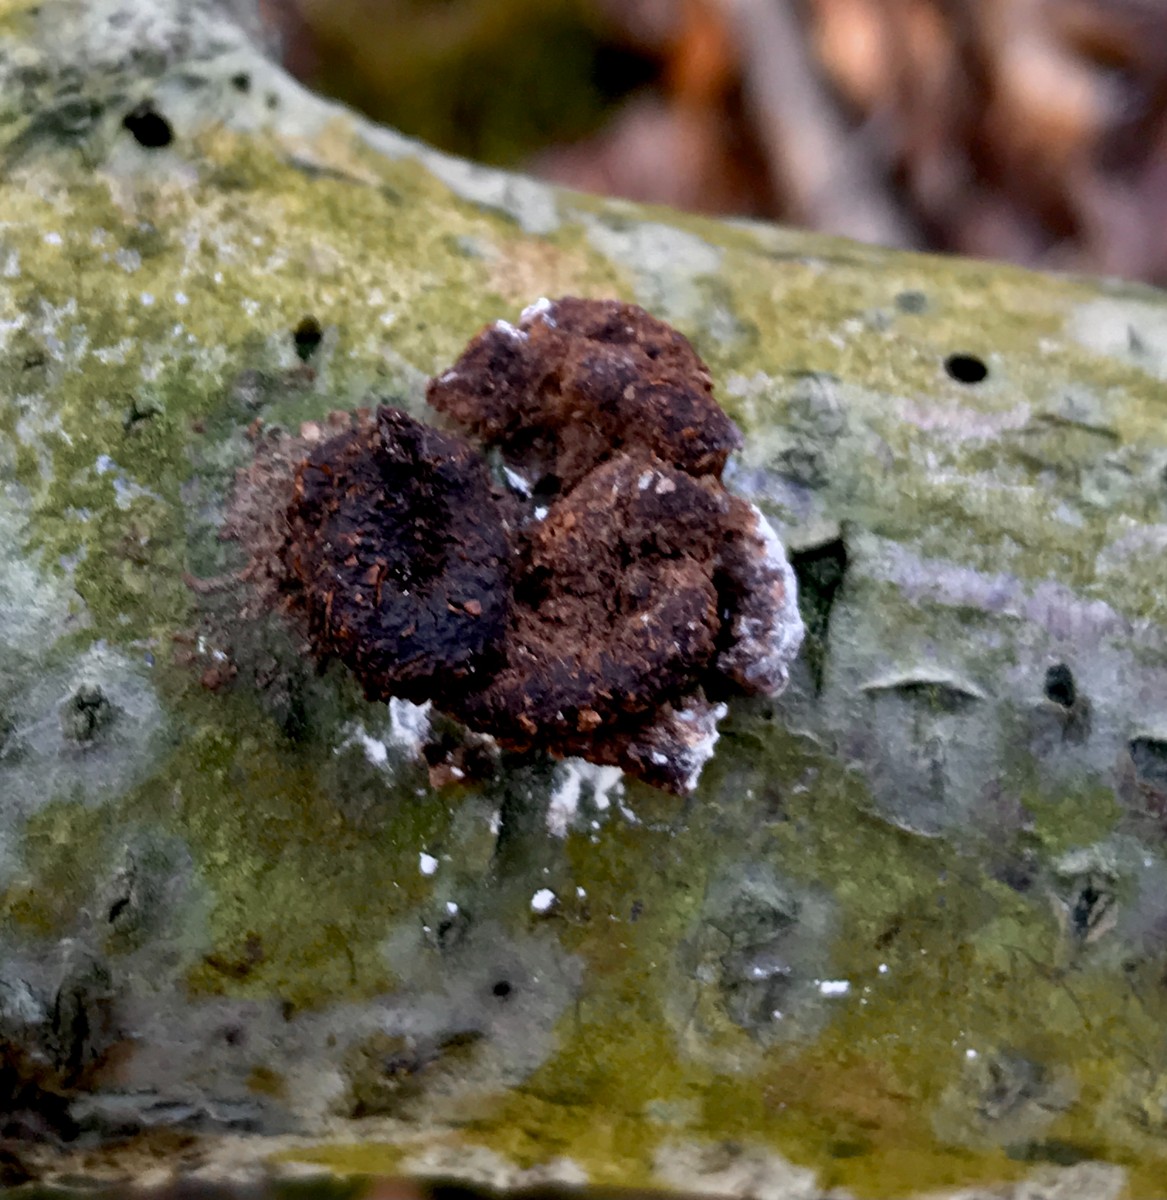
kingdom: Fungi
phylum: Ascomycota
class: Leotiomycetes
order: Helotiales
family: Cenangiaceae
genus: Encoelia
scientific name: Encoelia furfuracea
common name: hassel-læderskive
